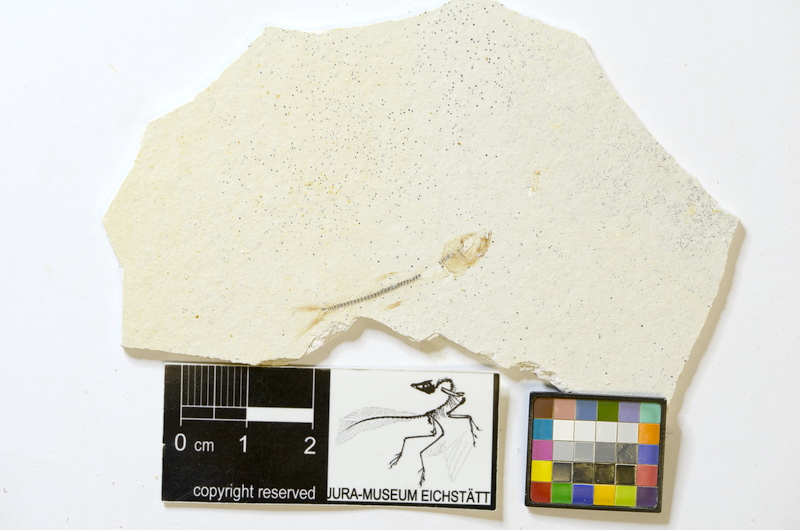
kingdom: Animalia
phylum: Chordata
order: Salmoniformes
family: Orthogonikleithridae
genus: Orthogonikleithrus
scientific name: Orthogonikleithrus hoelli
